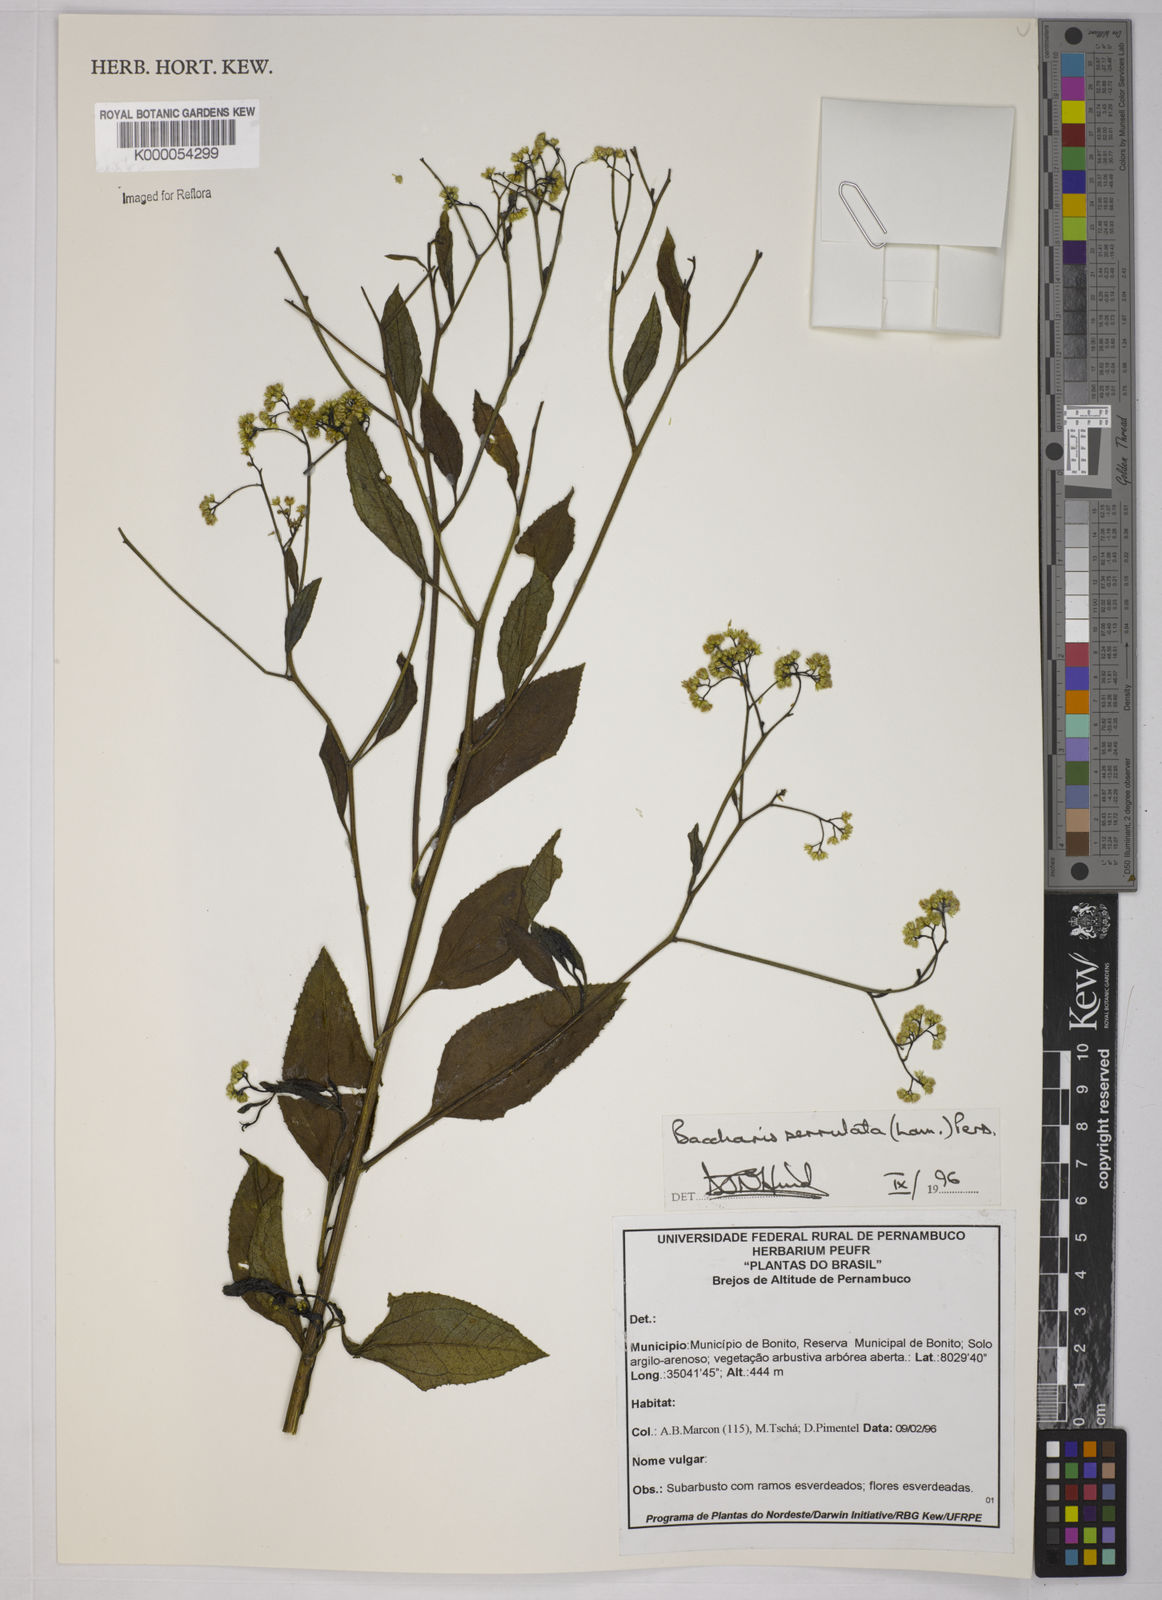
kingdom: Plantae
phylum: Tracheophyta
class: Magnoliopsida
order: Asterales
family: Asteraceae
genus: Baccharis
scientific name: Baccharis serrulata
